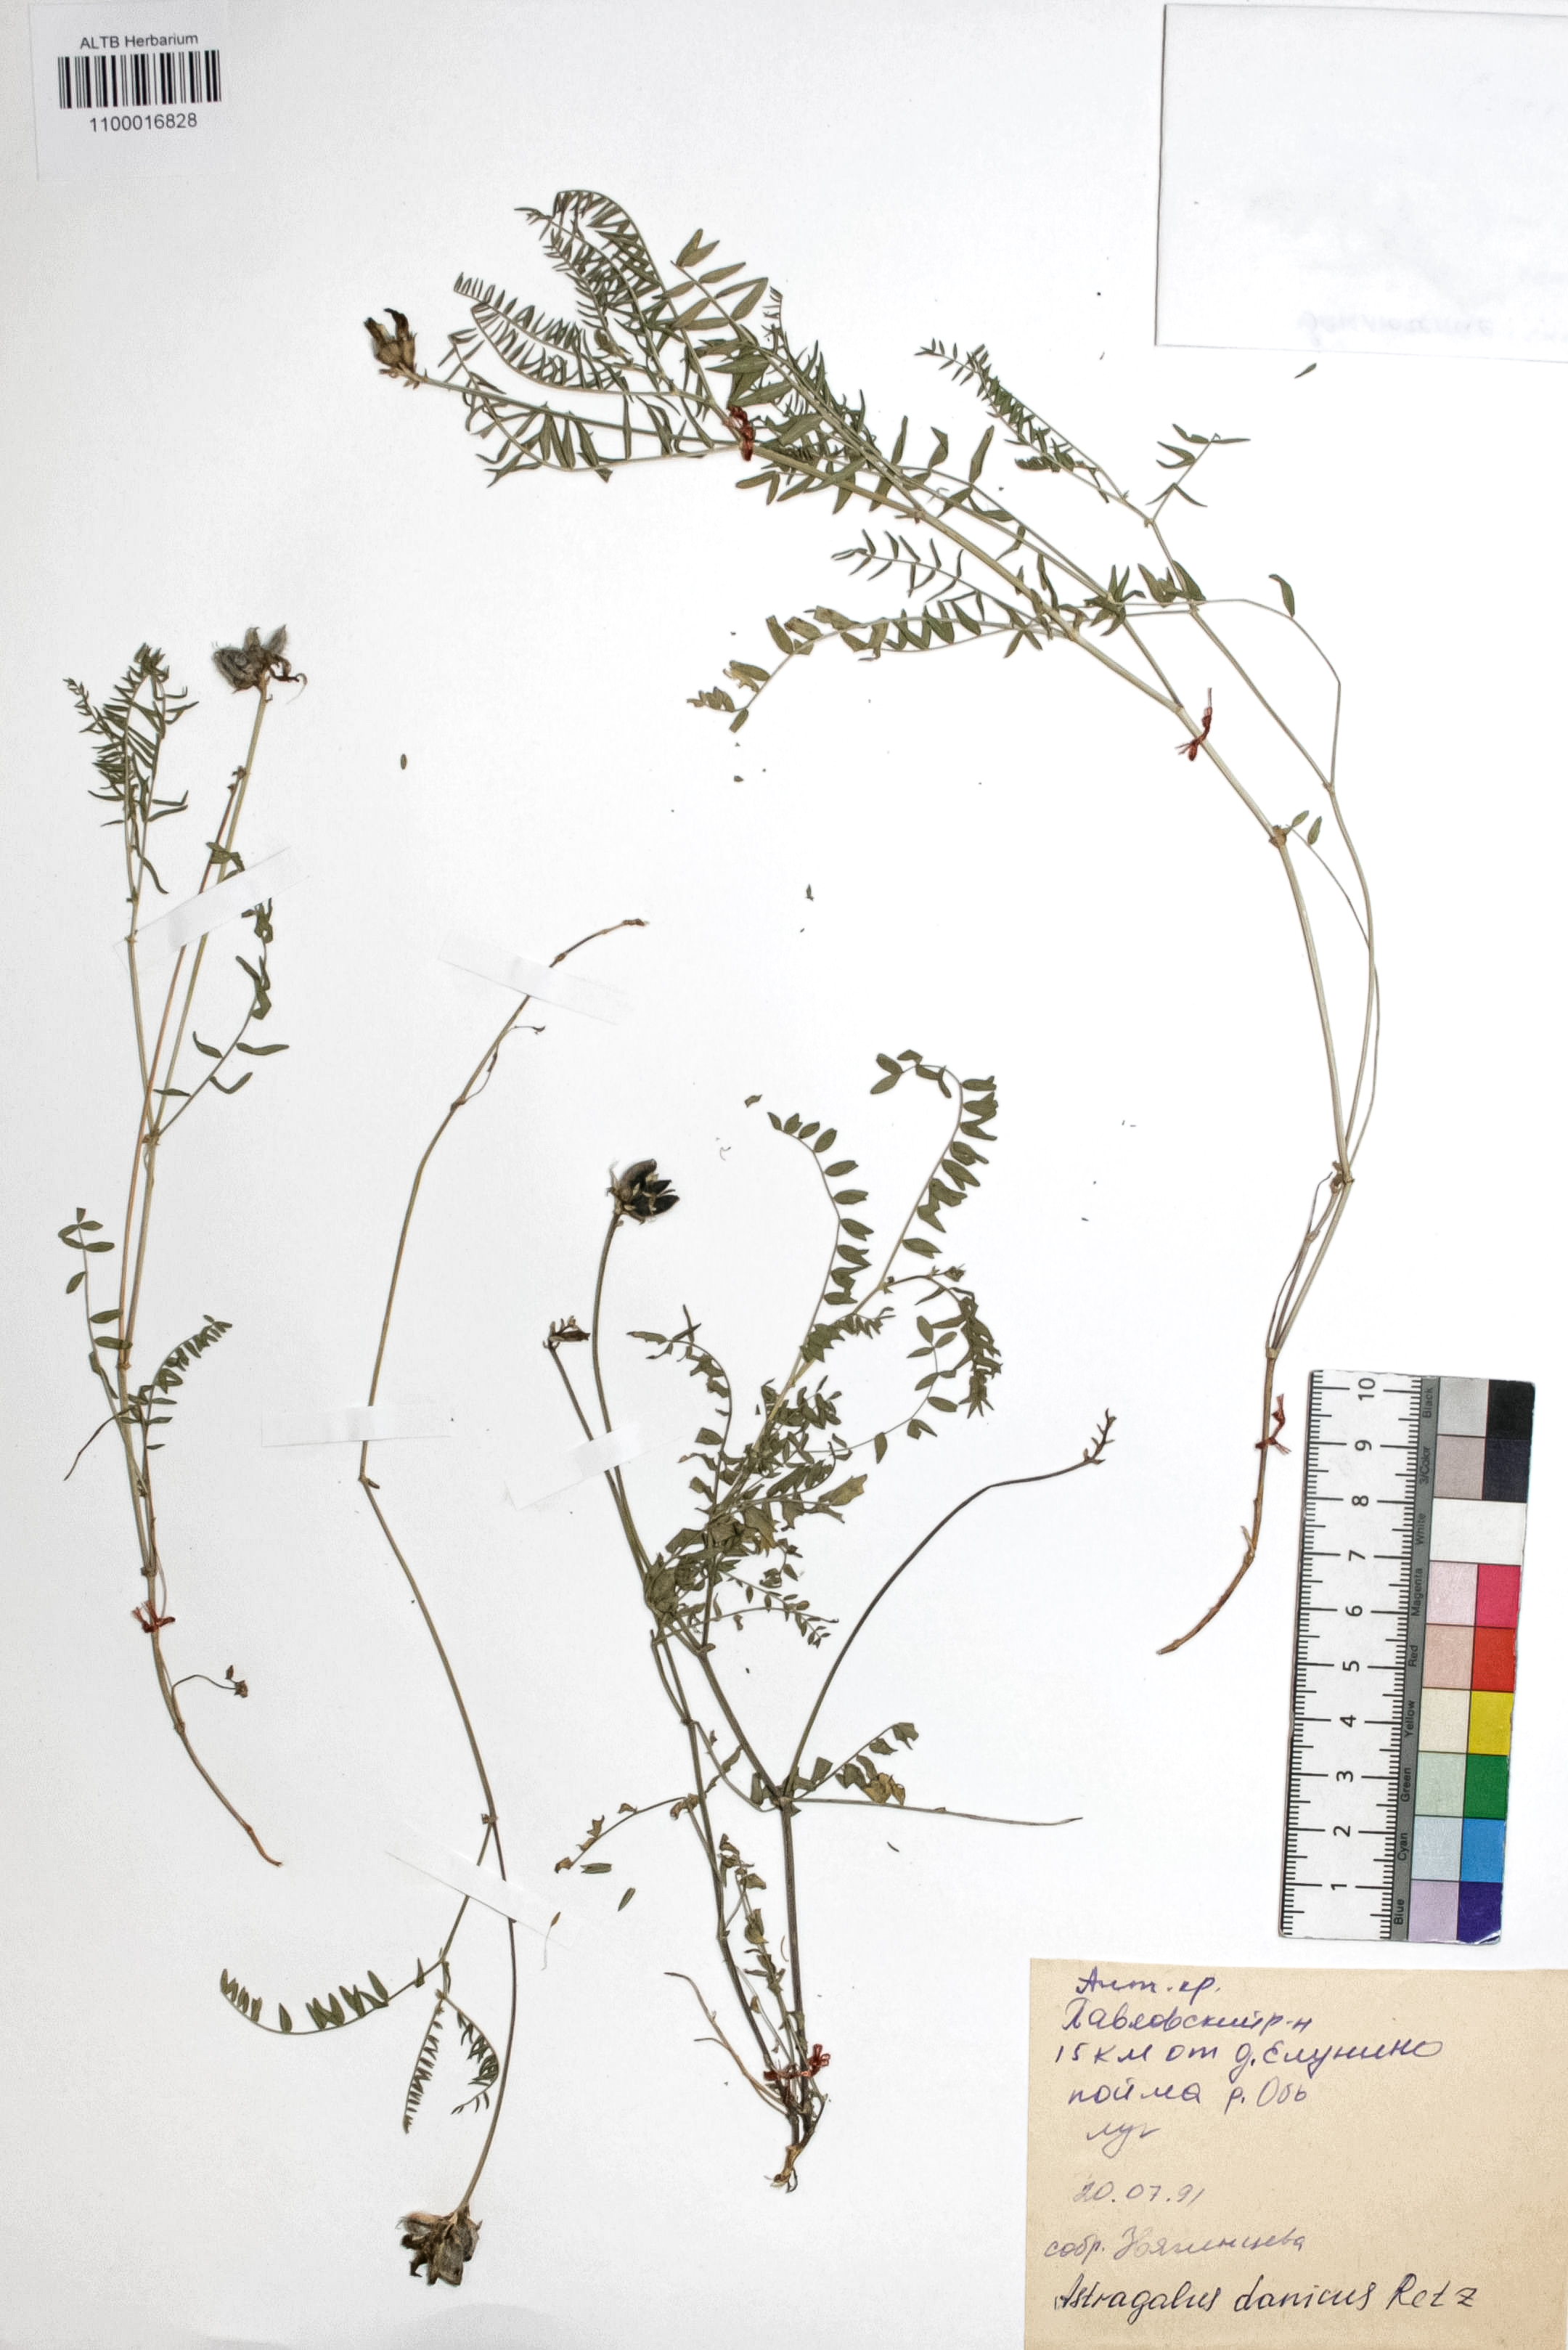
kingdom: Plantae
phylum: Tracheophyta
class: Magnoliopsida
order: Fabales
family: Fabaceae
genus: Astragalus
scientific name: Astragalus danicus
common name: Purple milk-vetch
